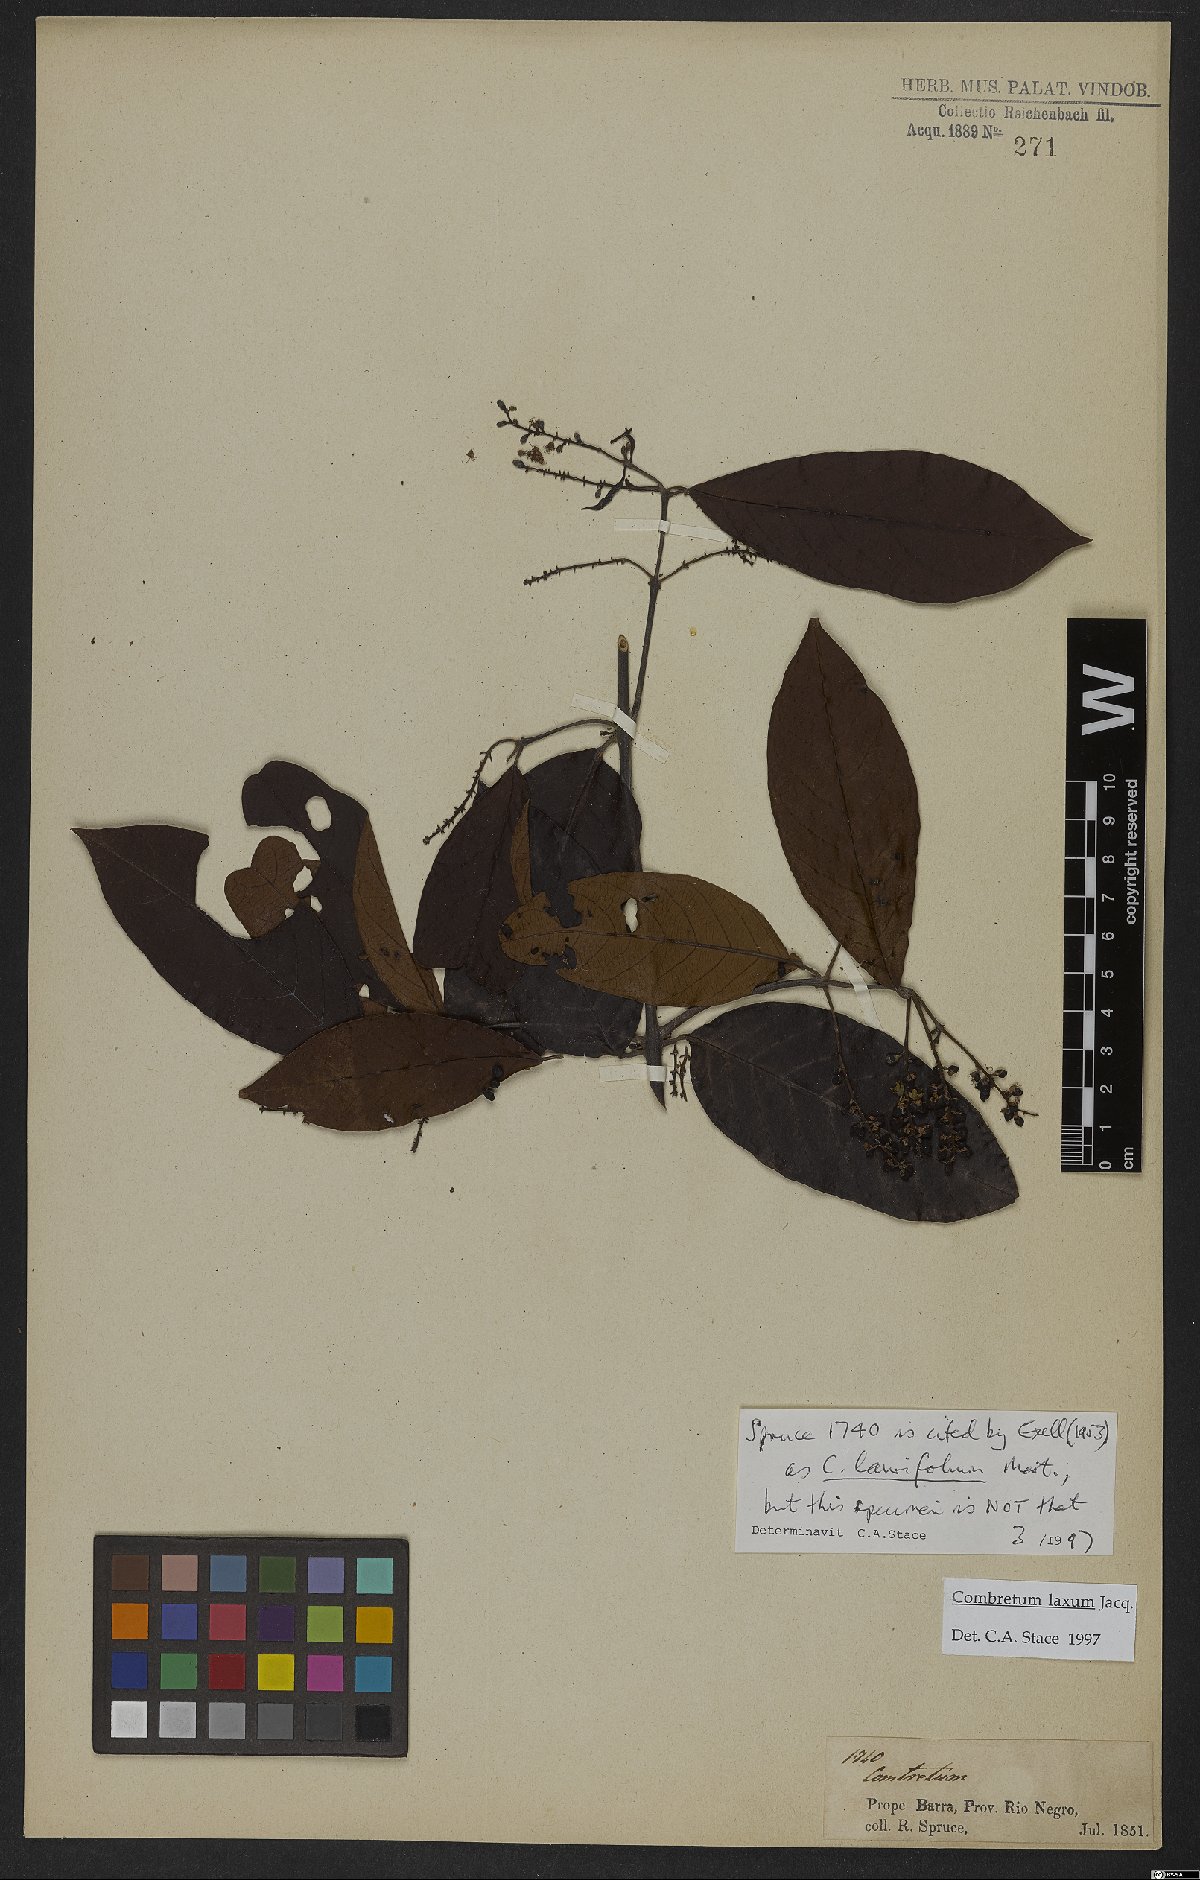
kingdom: Plantae
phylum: Tracheophyta
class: Magnoliopsida
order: Myrtales
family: Combretaceae
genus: Combretum
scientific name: Combretum laxum
